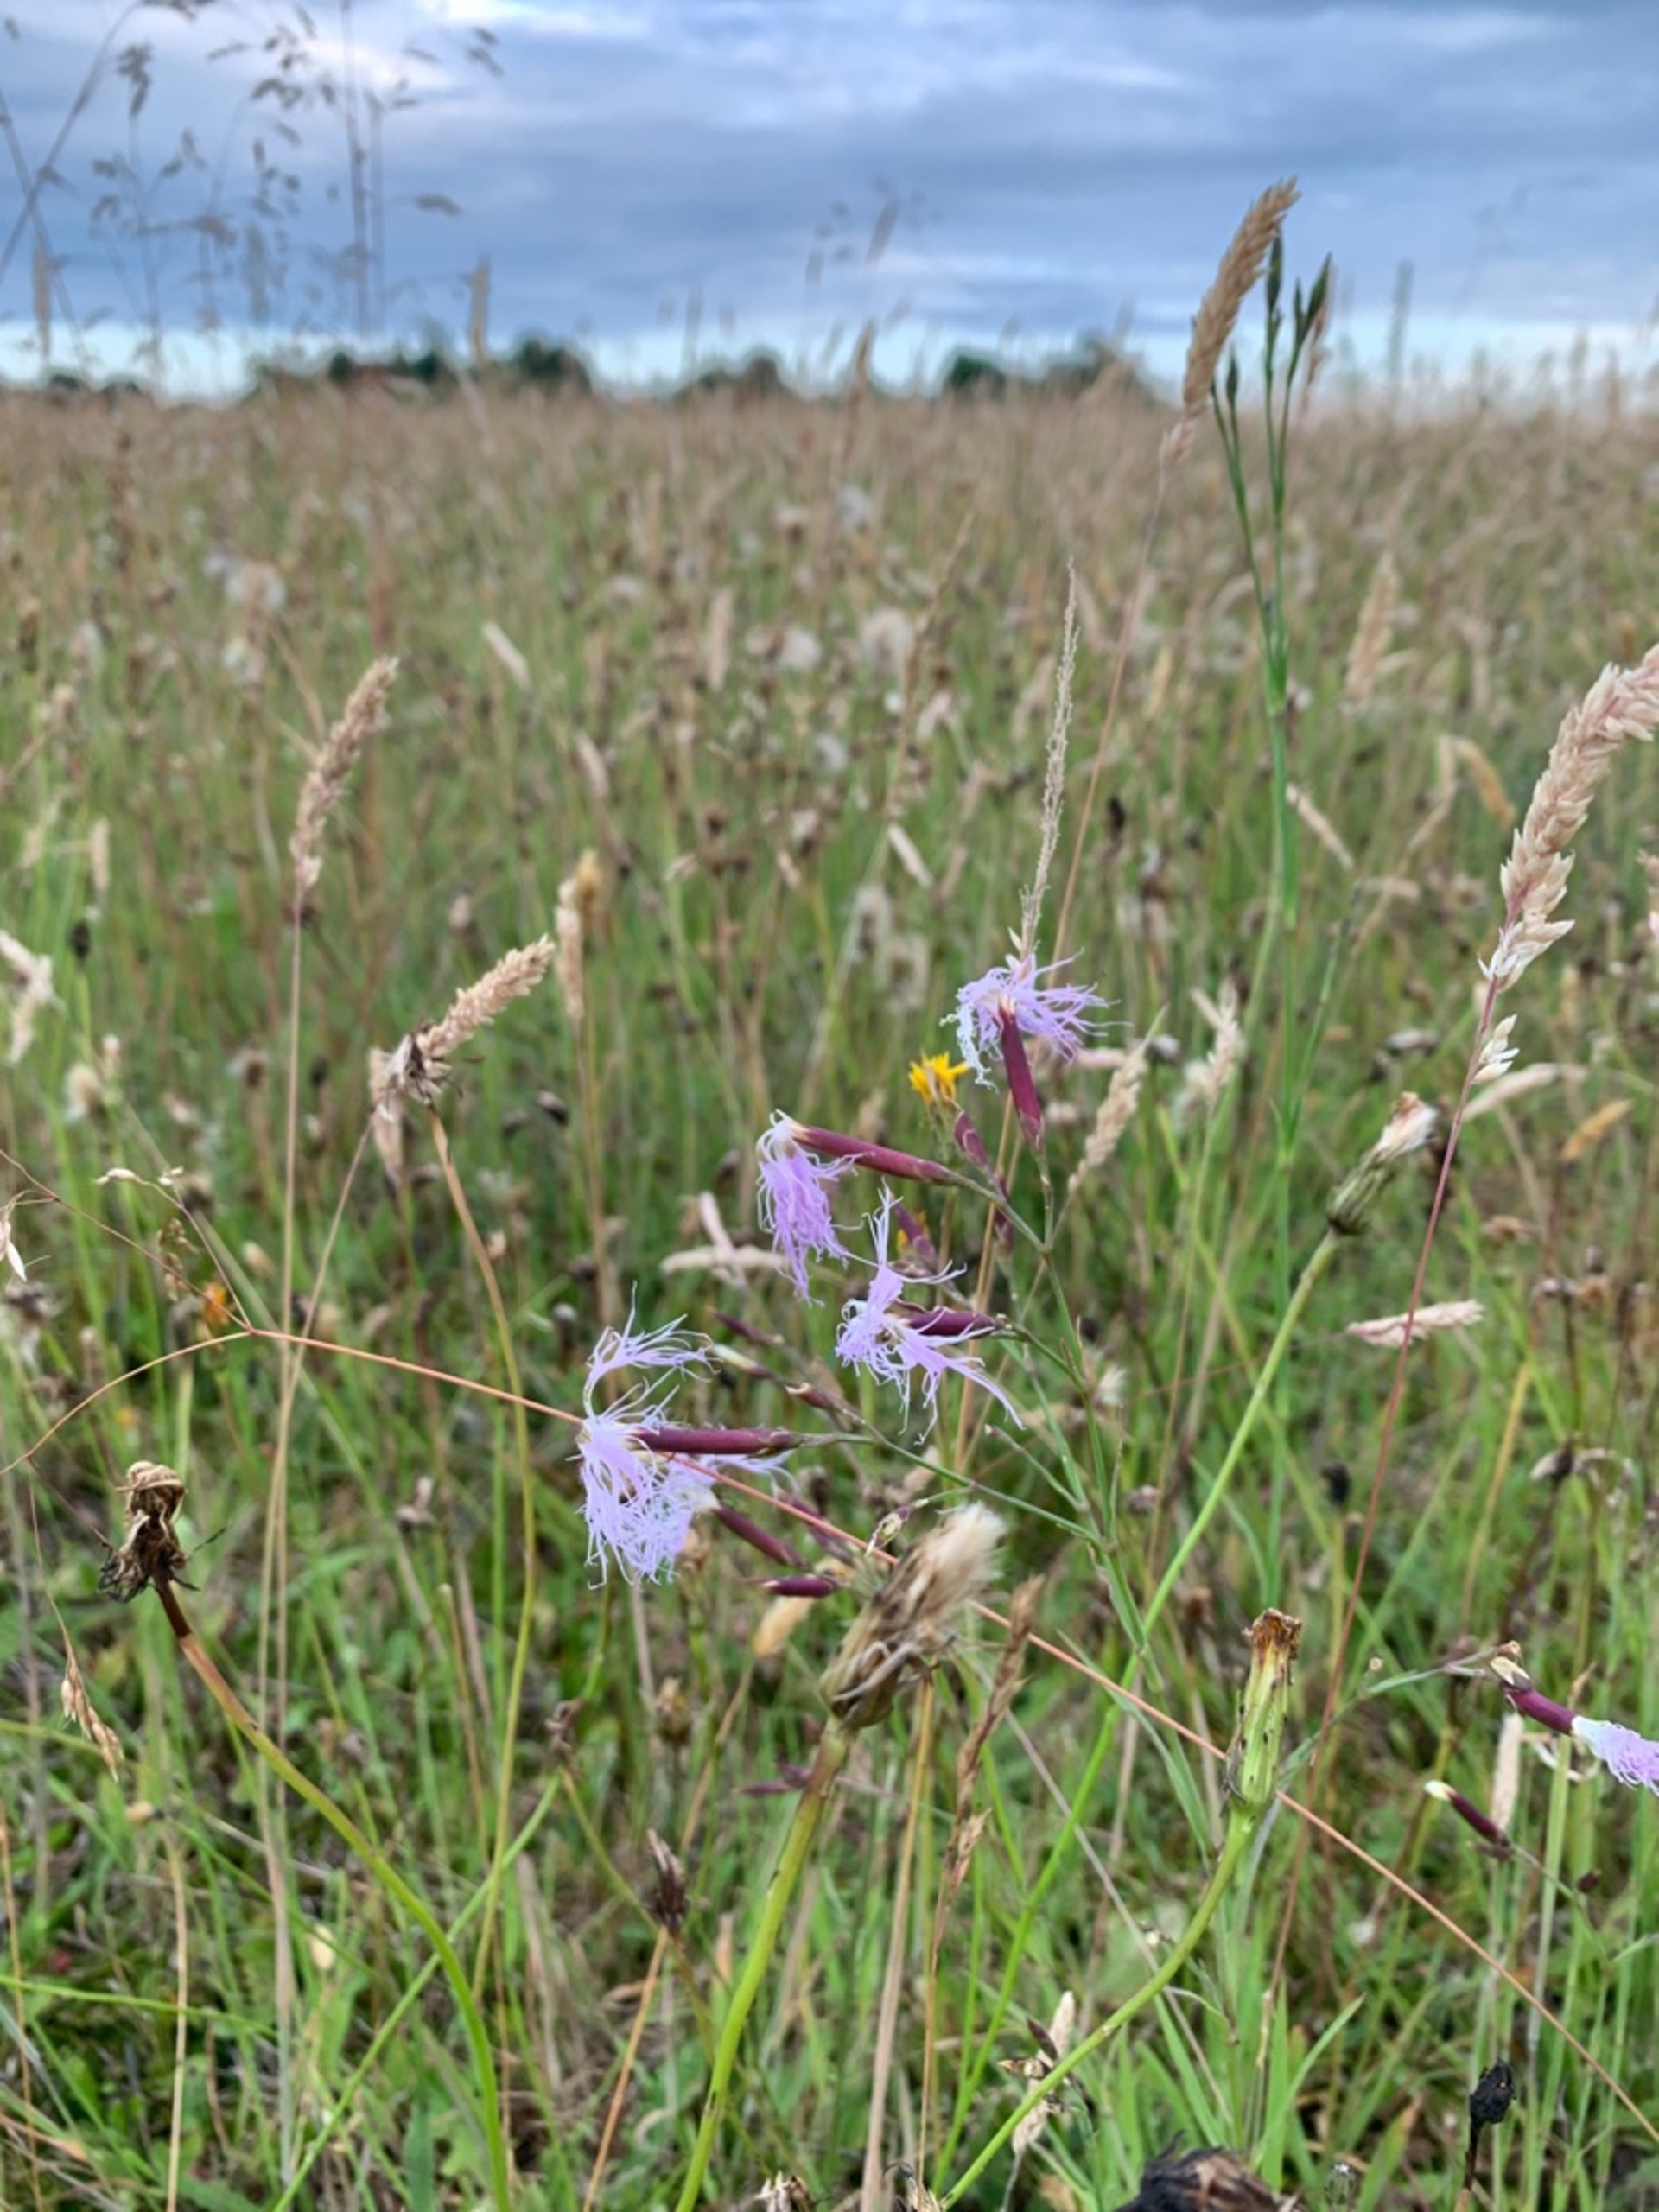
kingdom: Plantae
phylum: Tracheophyta
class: Magnoliopsida
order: Caryophyllales
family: Caryophyllaceae
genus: Dianthus
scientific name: Dianthus superbus
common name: Strand-nellike
